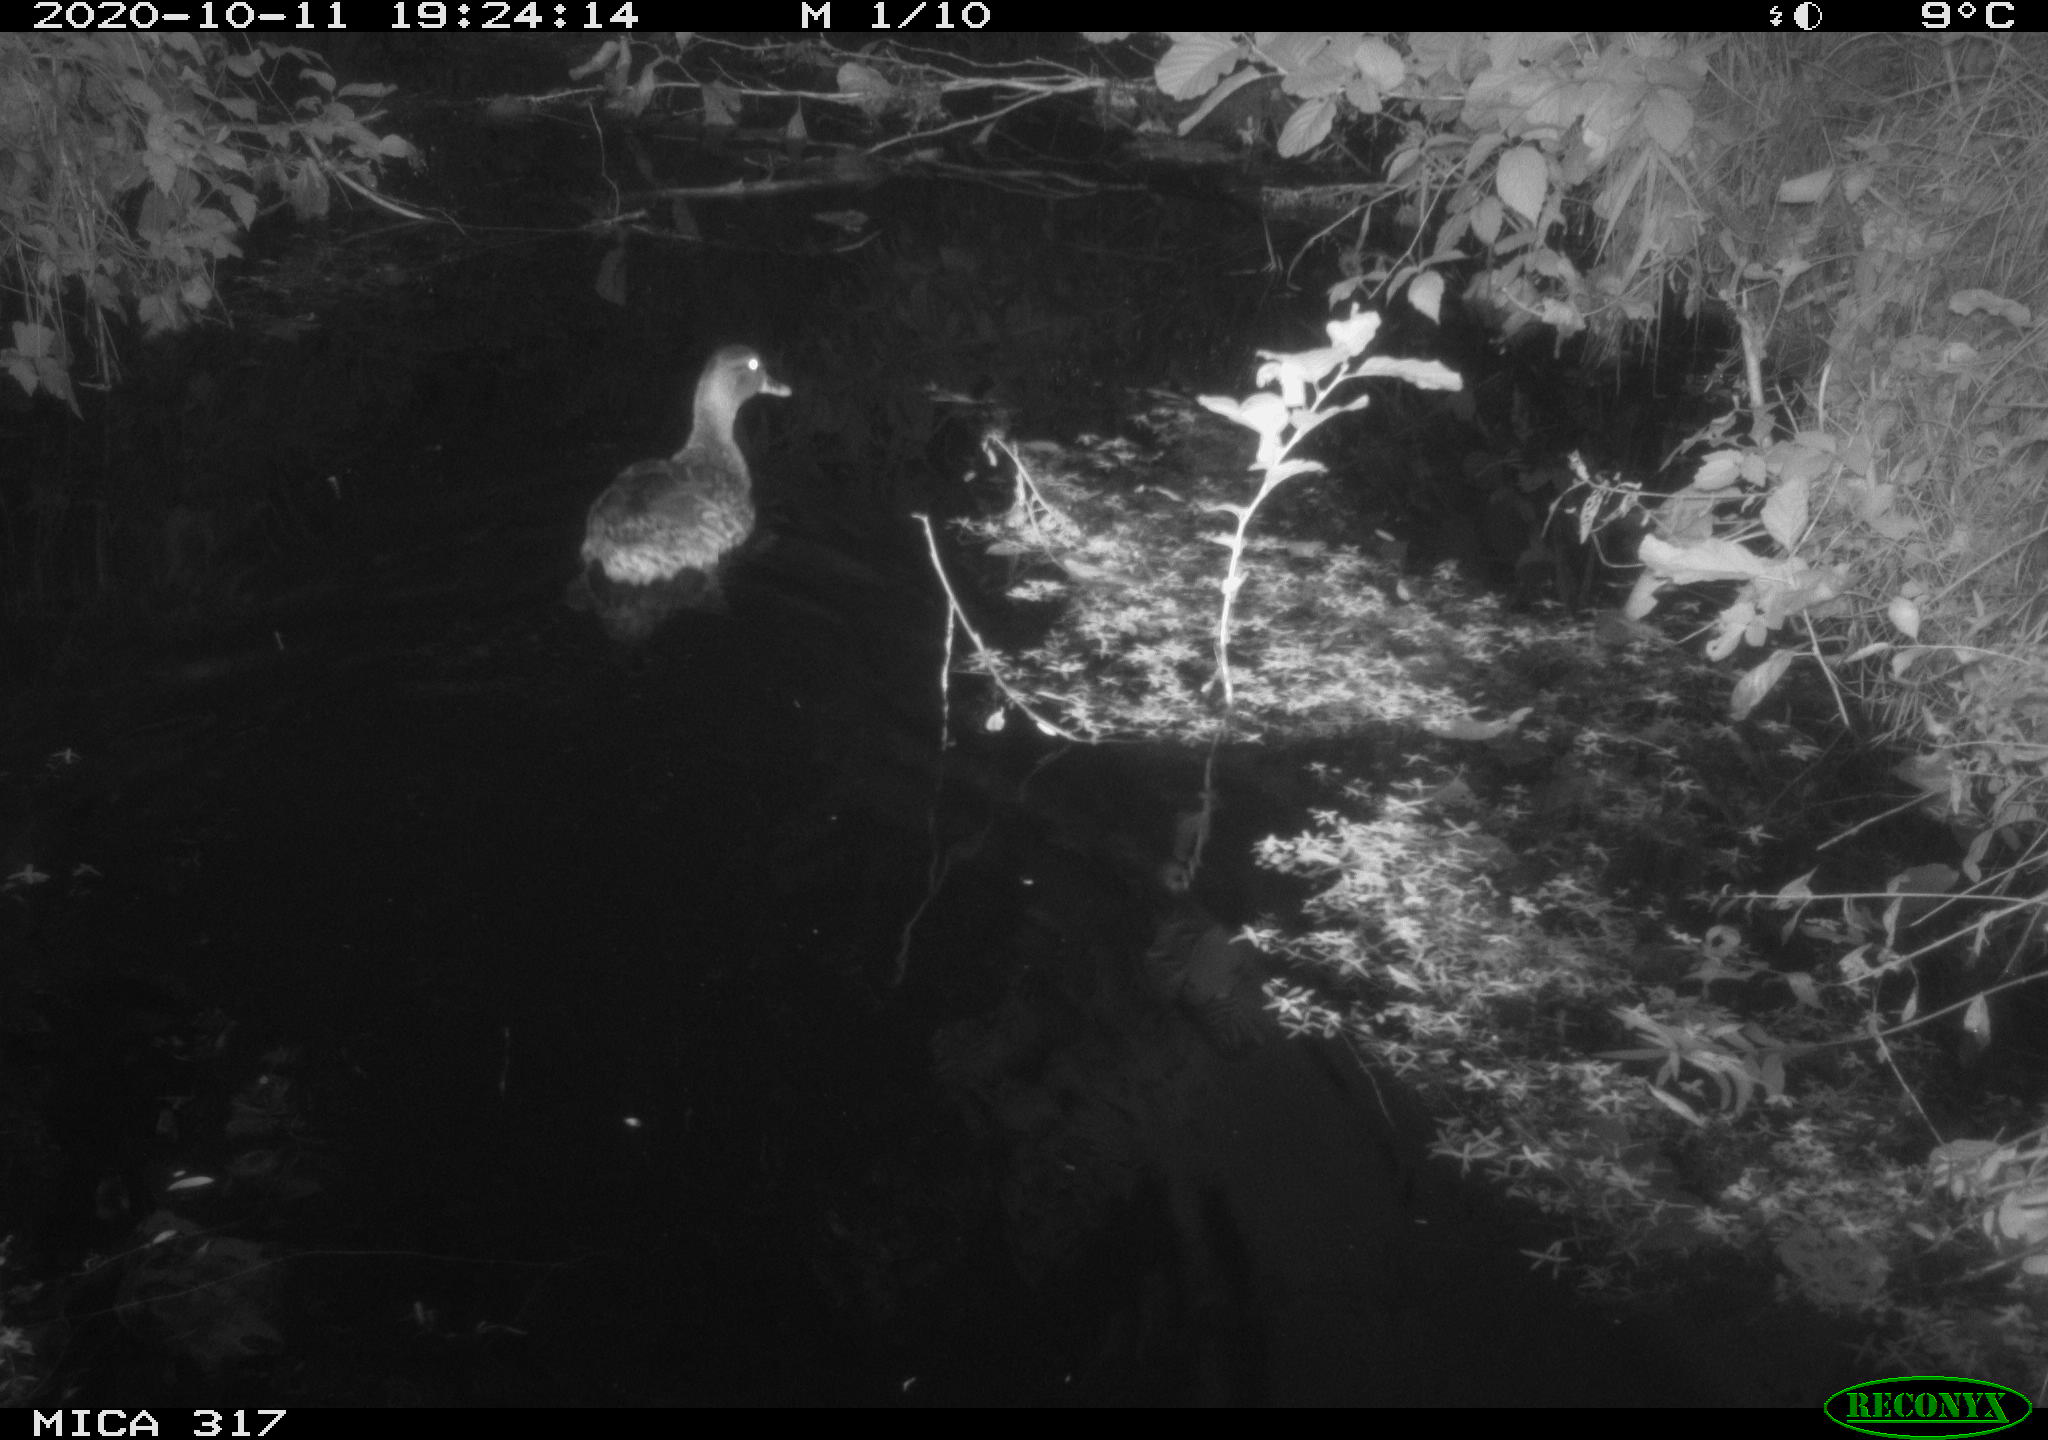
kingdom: Animalia
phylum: Chordata
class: Aves
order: Anseriformes
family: Anatidae
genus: Anas
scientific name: Anas platyrhynchos
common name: Mallard
